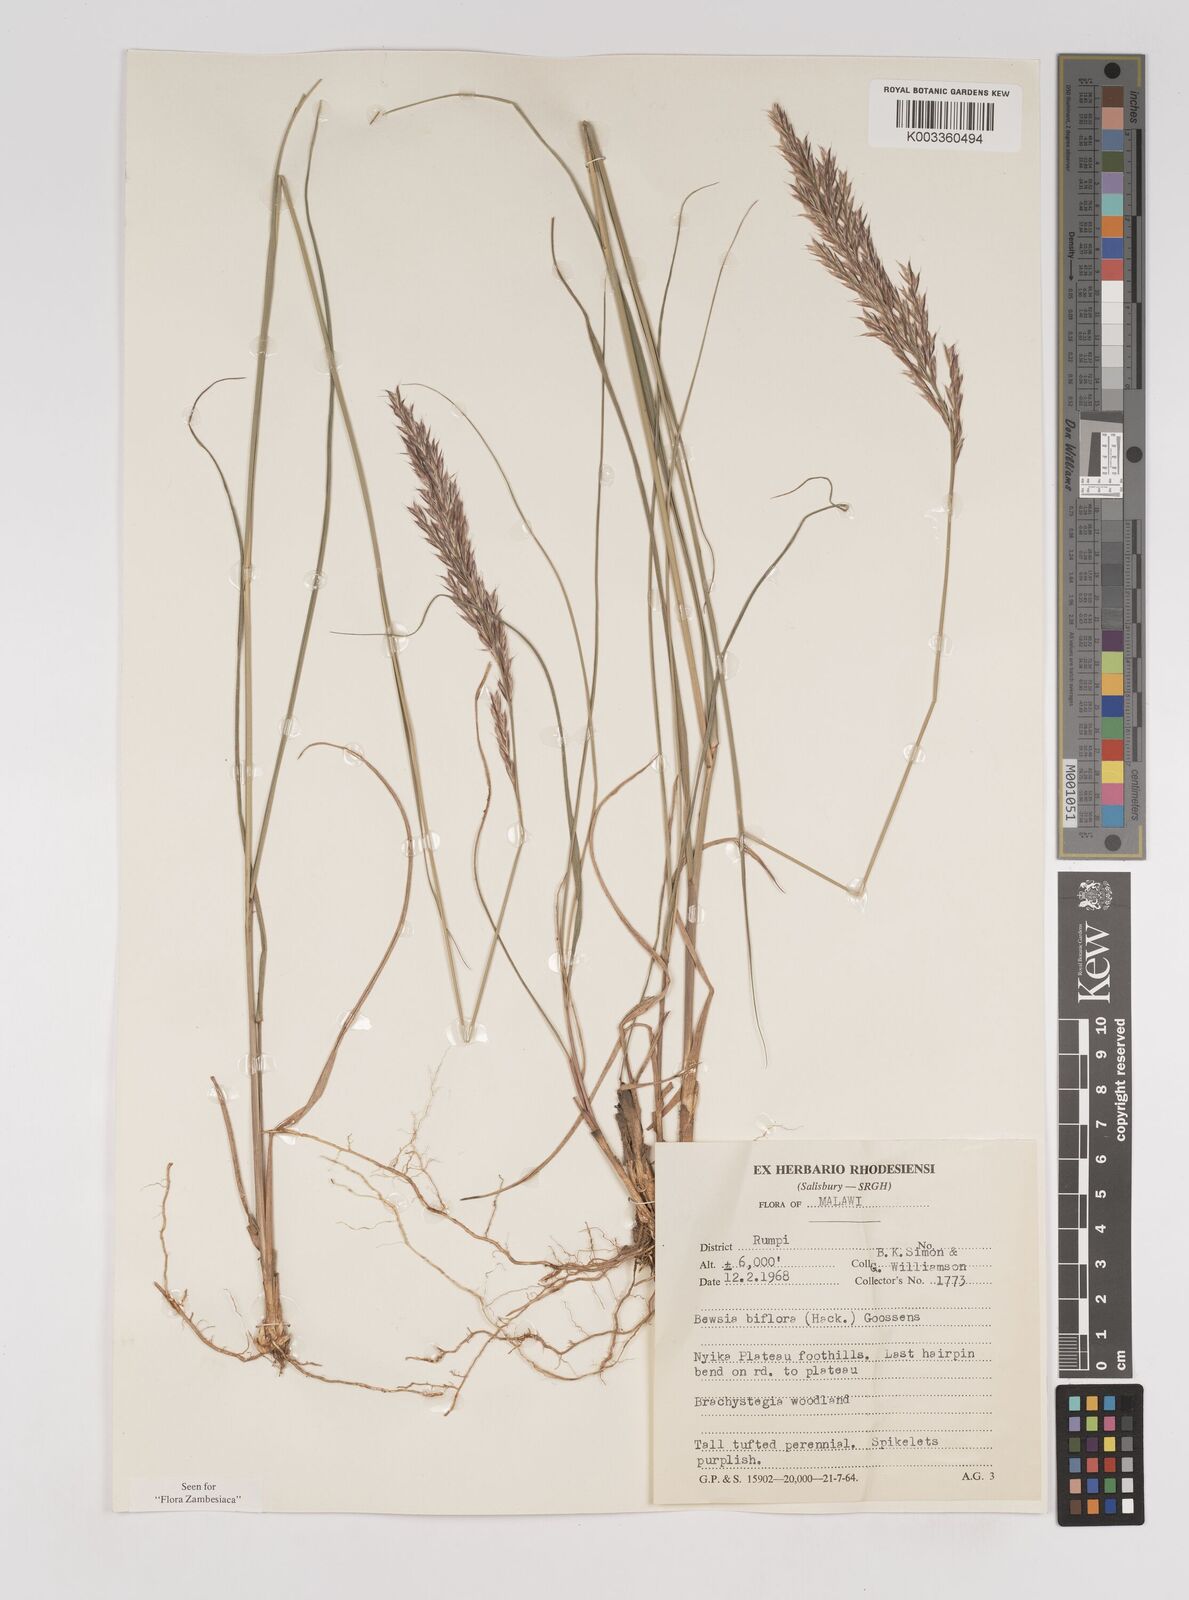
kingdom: Plantae
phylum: Tracheophyta
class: Liliopsida
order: Poales
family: Poaceae
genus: Bewsia
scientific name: Bewsia biflora
